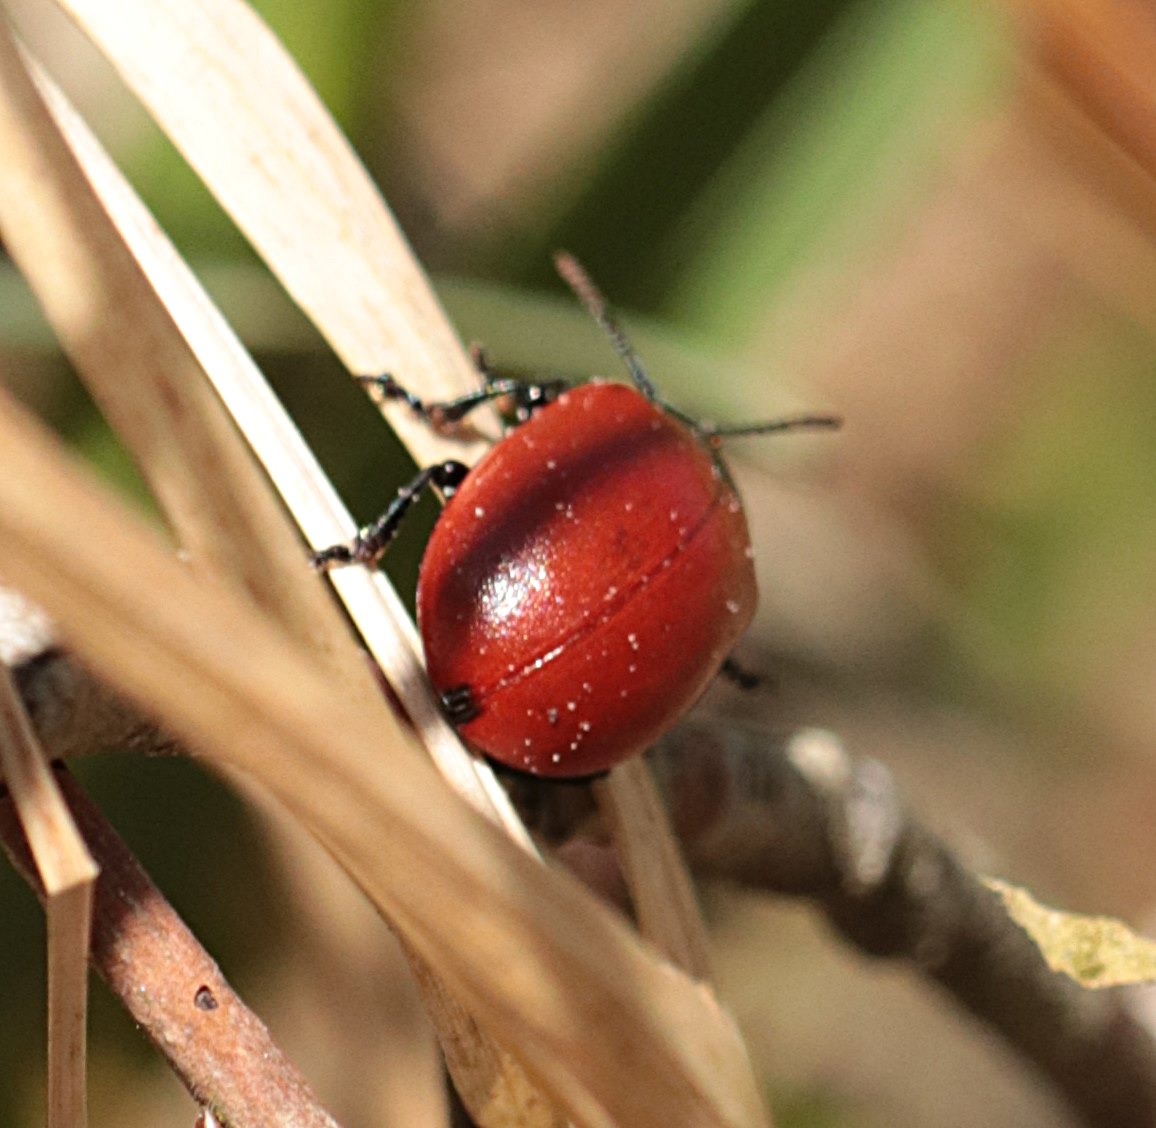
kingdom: Animalia
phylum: Arthropoda
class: Insecta
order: Coleoptera
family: Chrysomelidae
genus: Chrysomela
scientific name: Chrysomela populi
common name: Poppelbladbille
